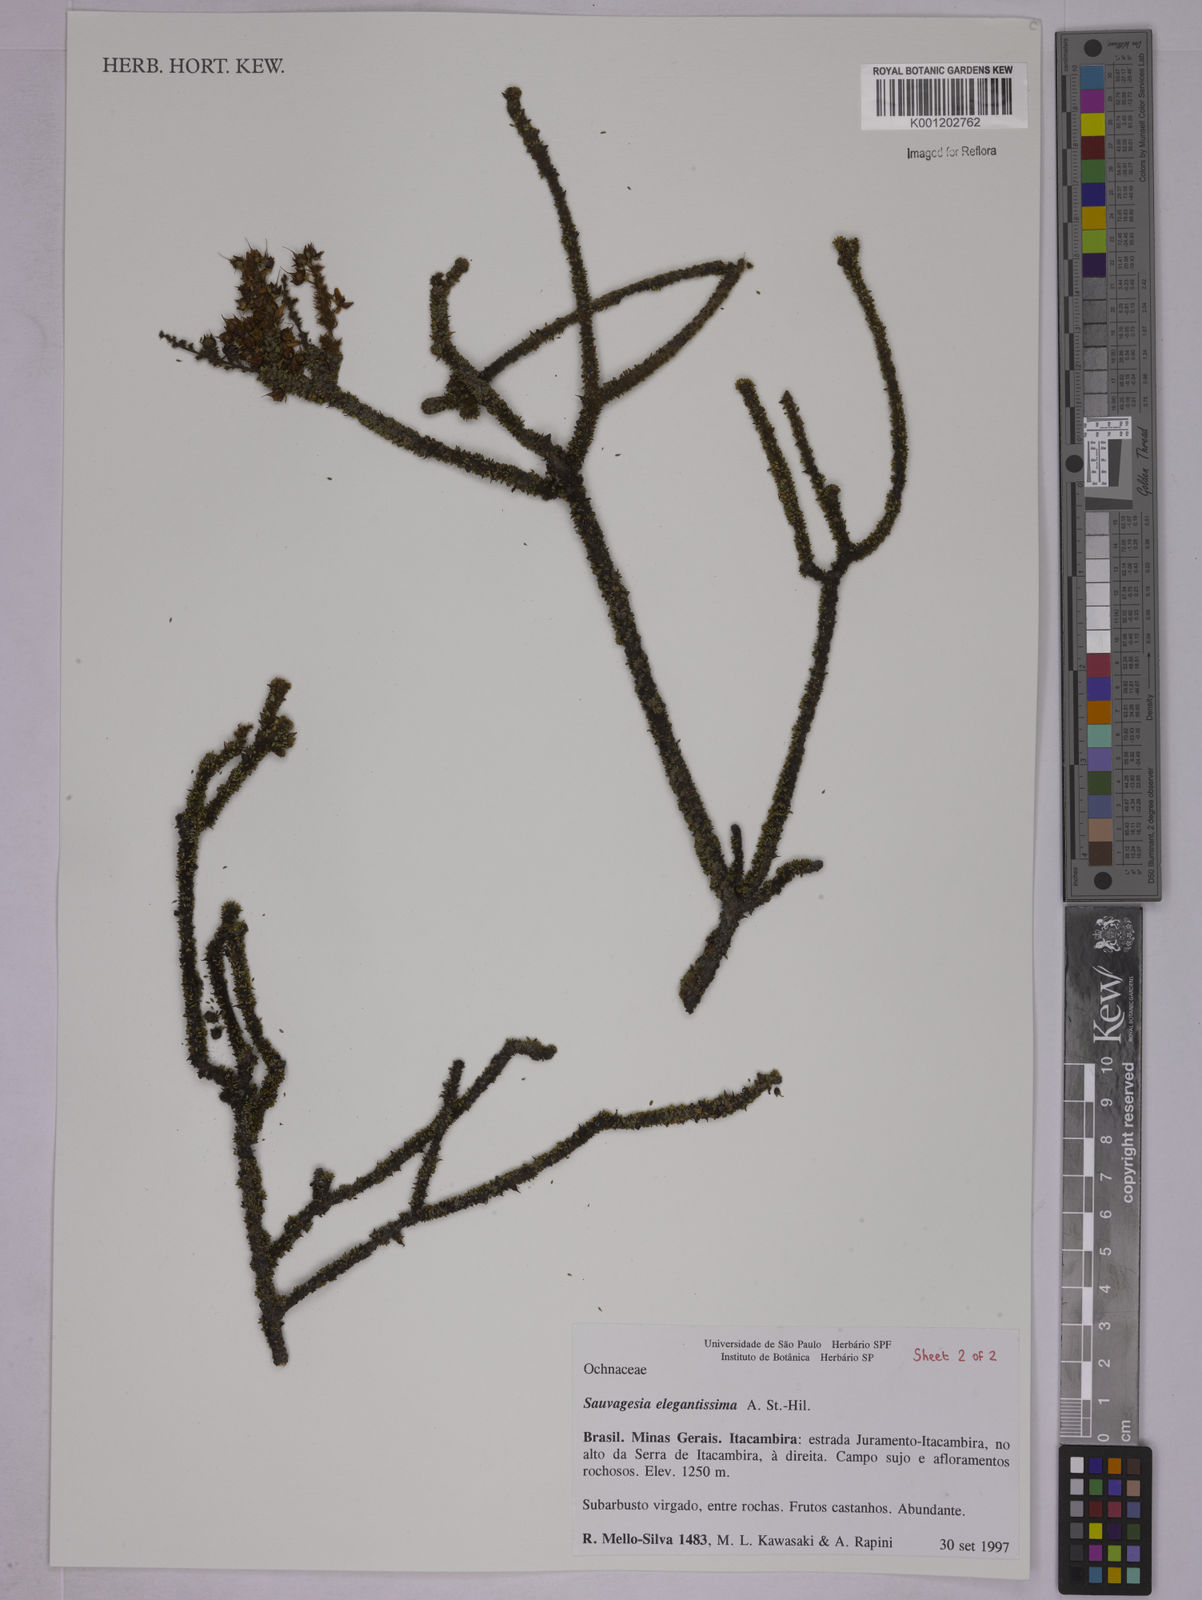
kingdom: Plantae
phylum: Tracheophyta
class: Magnoliopsida
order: Malpighiales
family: Ochnaceae
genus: Sauvagesia
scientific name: Sauvagesia elegantissima
